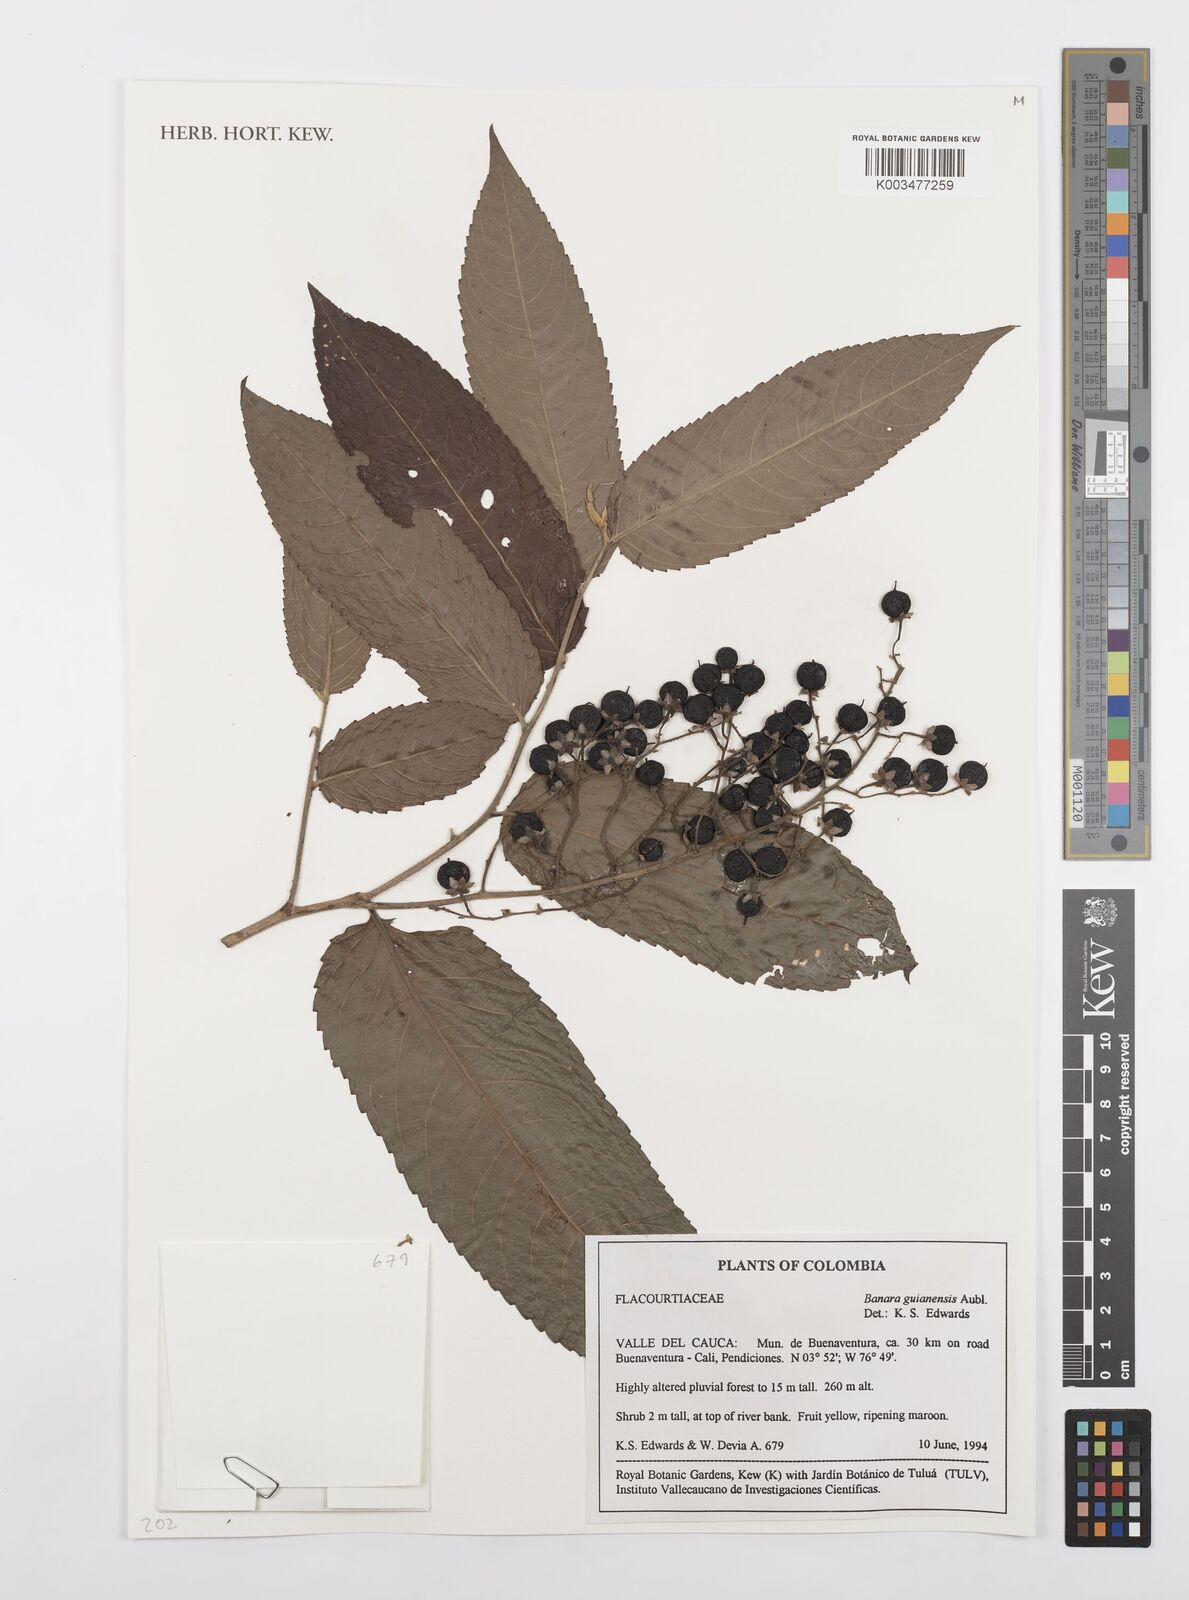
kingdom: Plantae
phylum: Tracheophyta
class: Magnoliopsida
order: Malpighiales
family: Salicaceae
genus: Banara
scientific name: Banara guianensis
